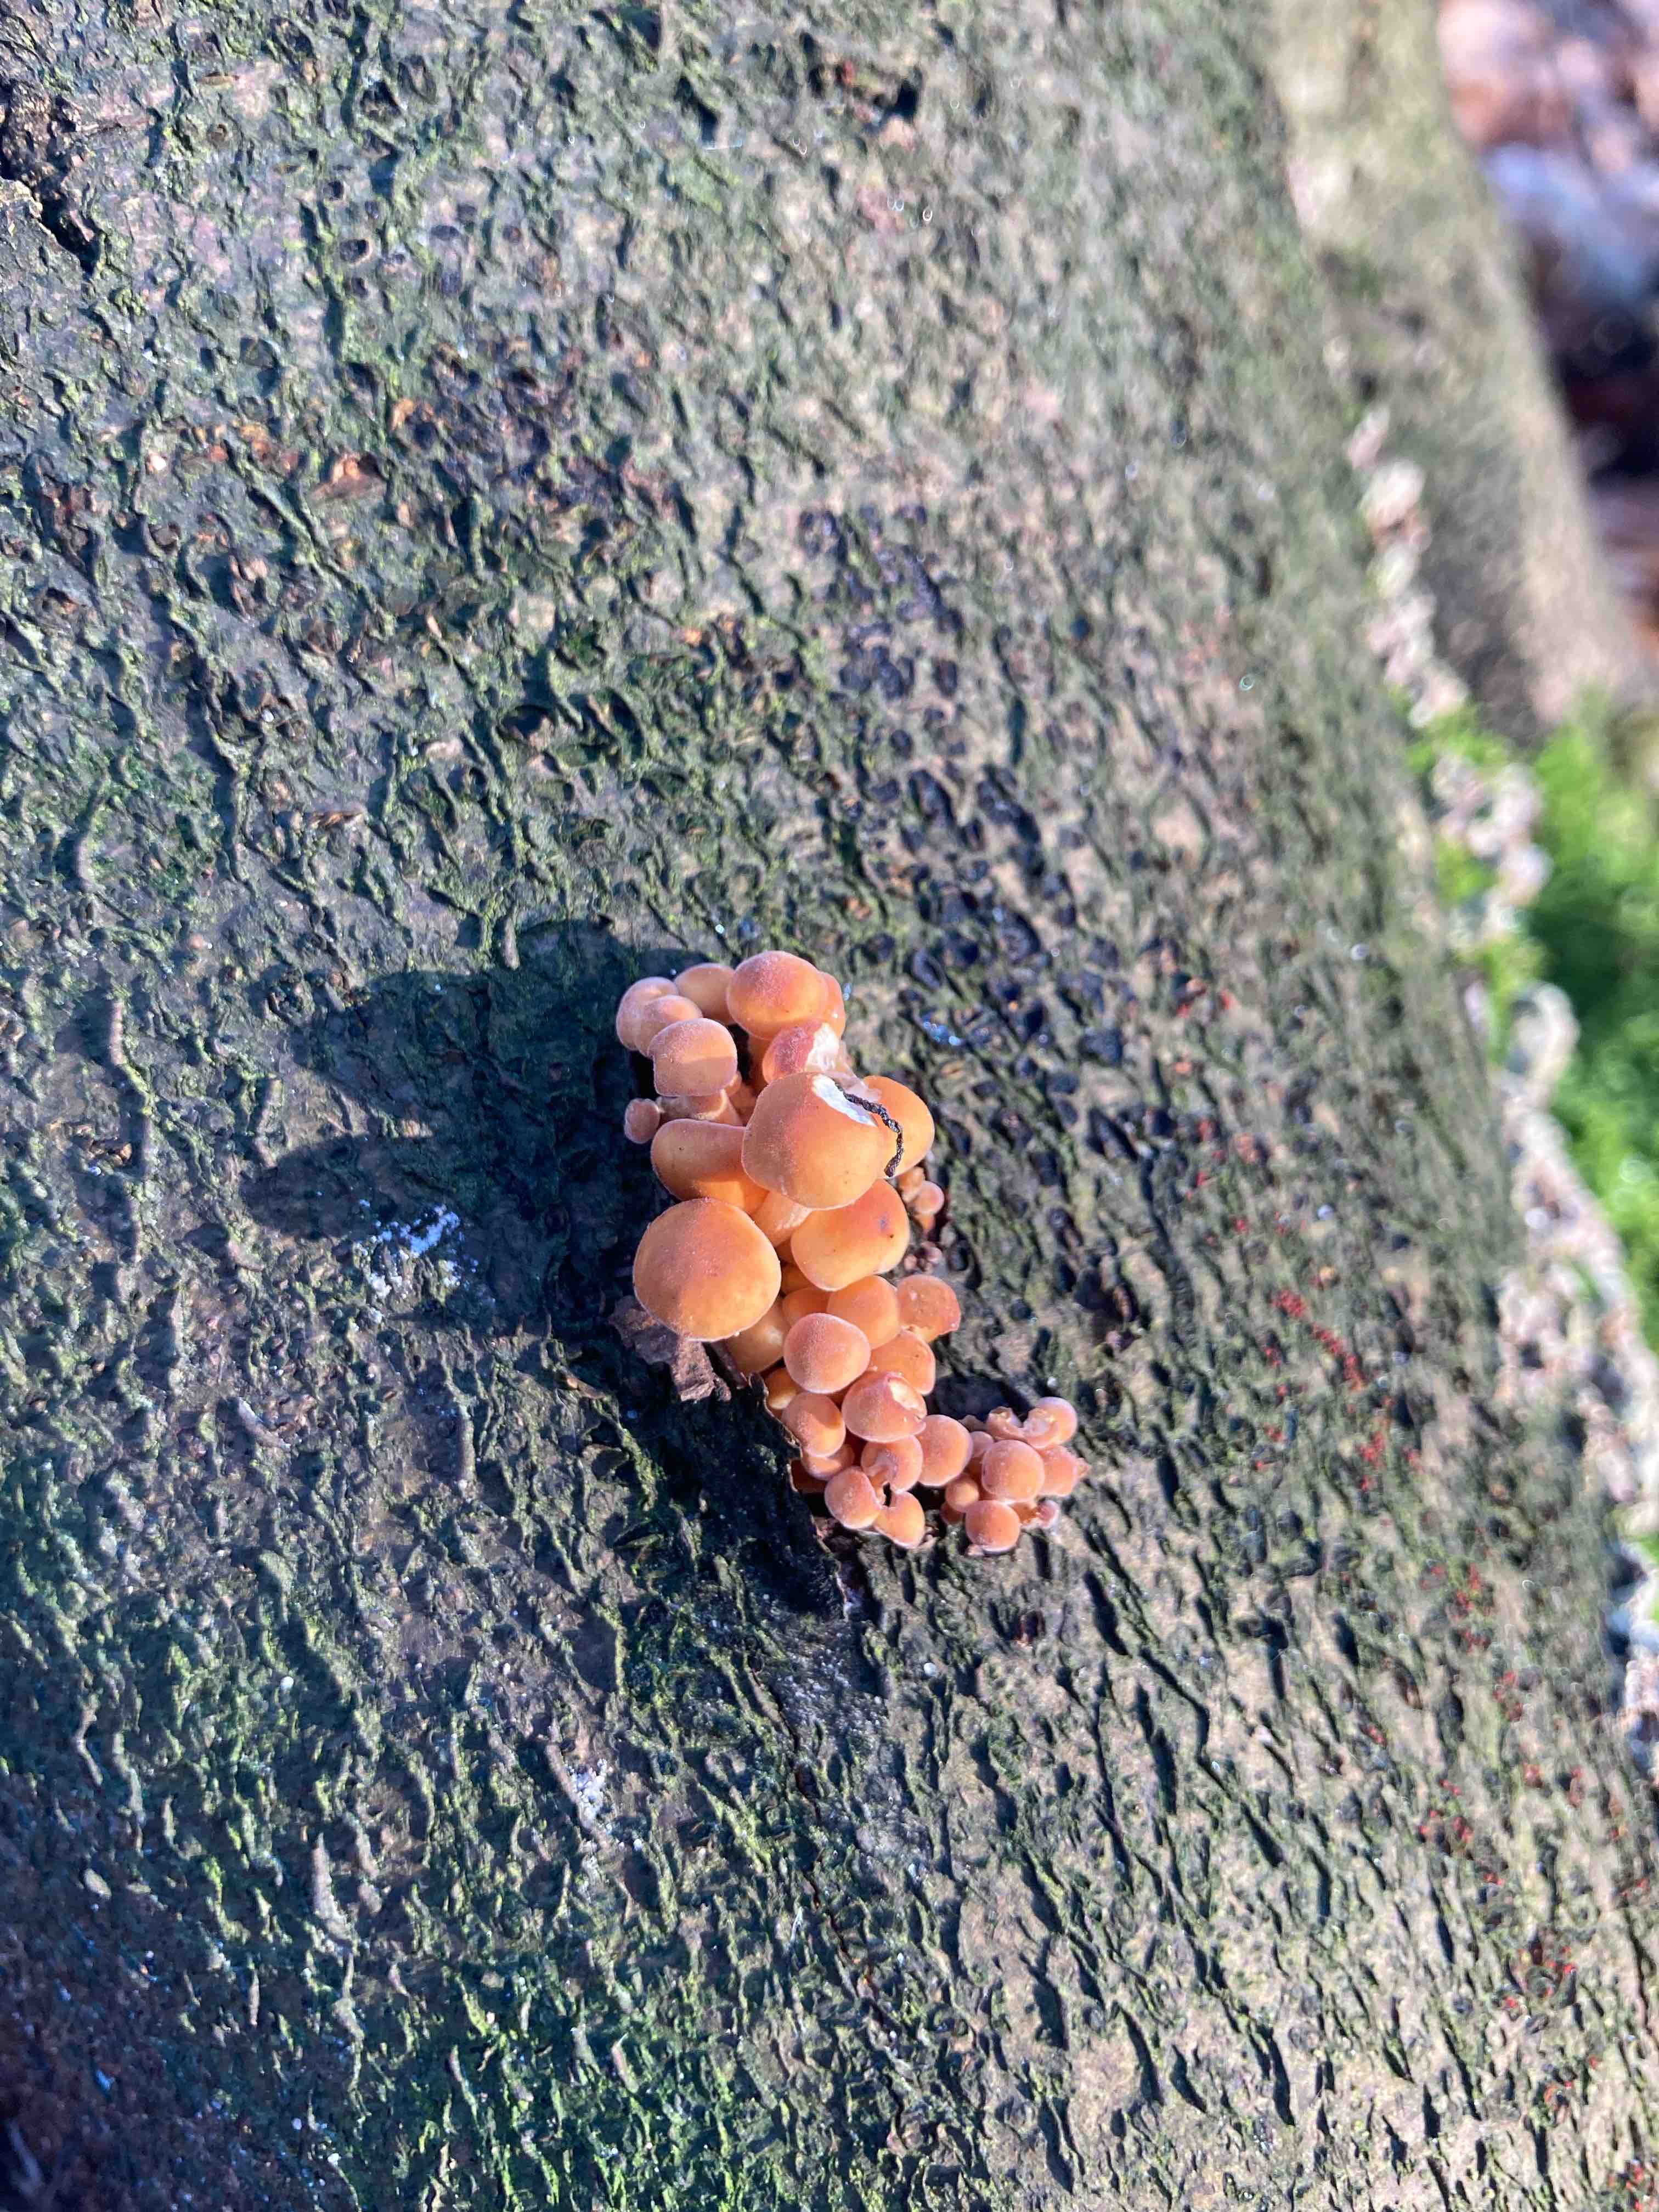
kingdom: Fungi
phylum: Basidiomycota
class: Agaricomycetes
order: Agaricales
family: Physalacriaceae
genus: Flammulina
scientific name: Flammulina velutipes
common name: gul fløjlsfod
